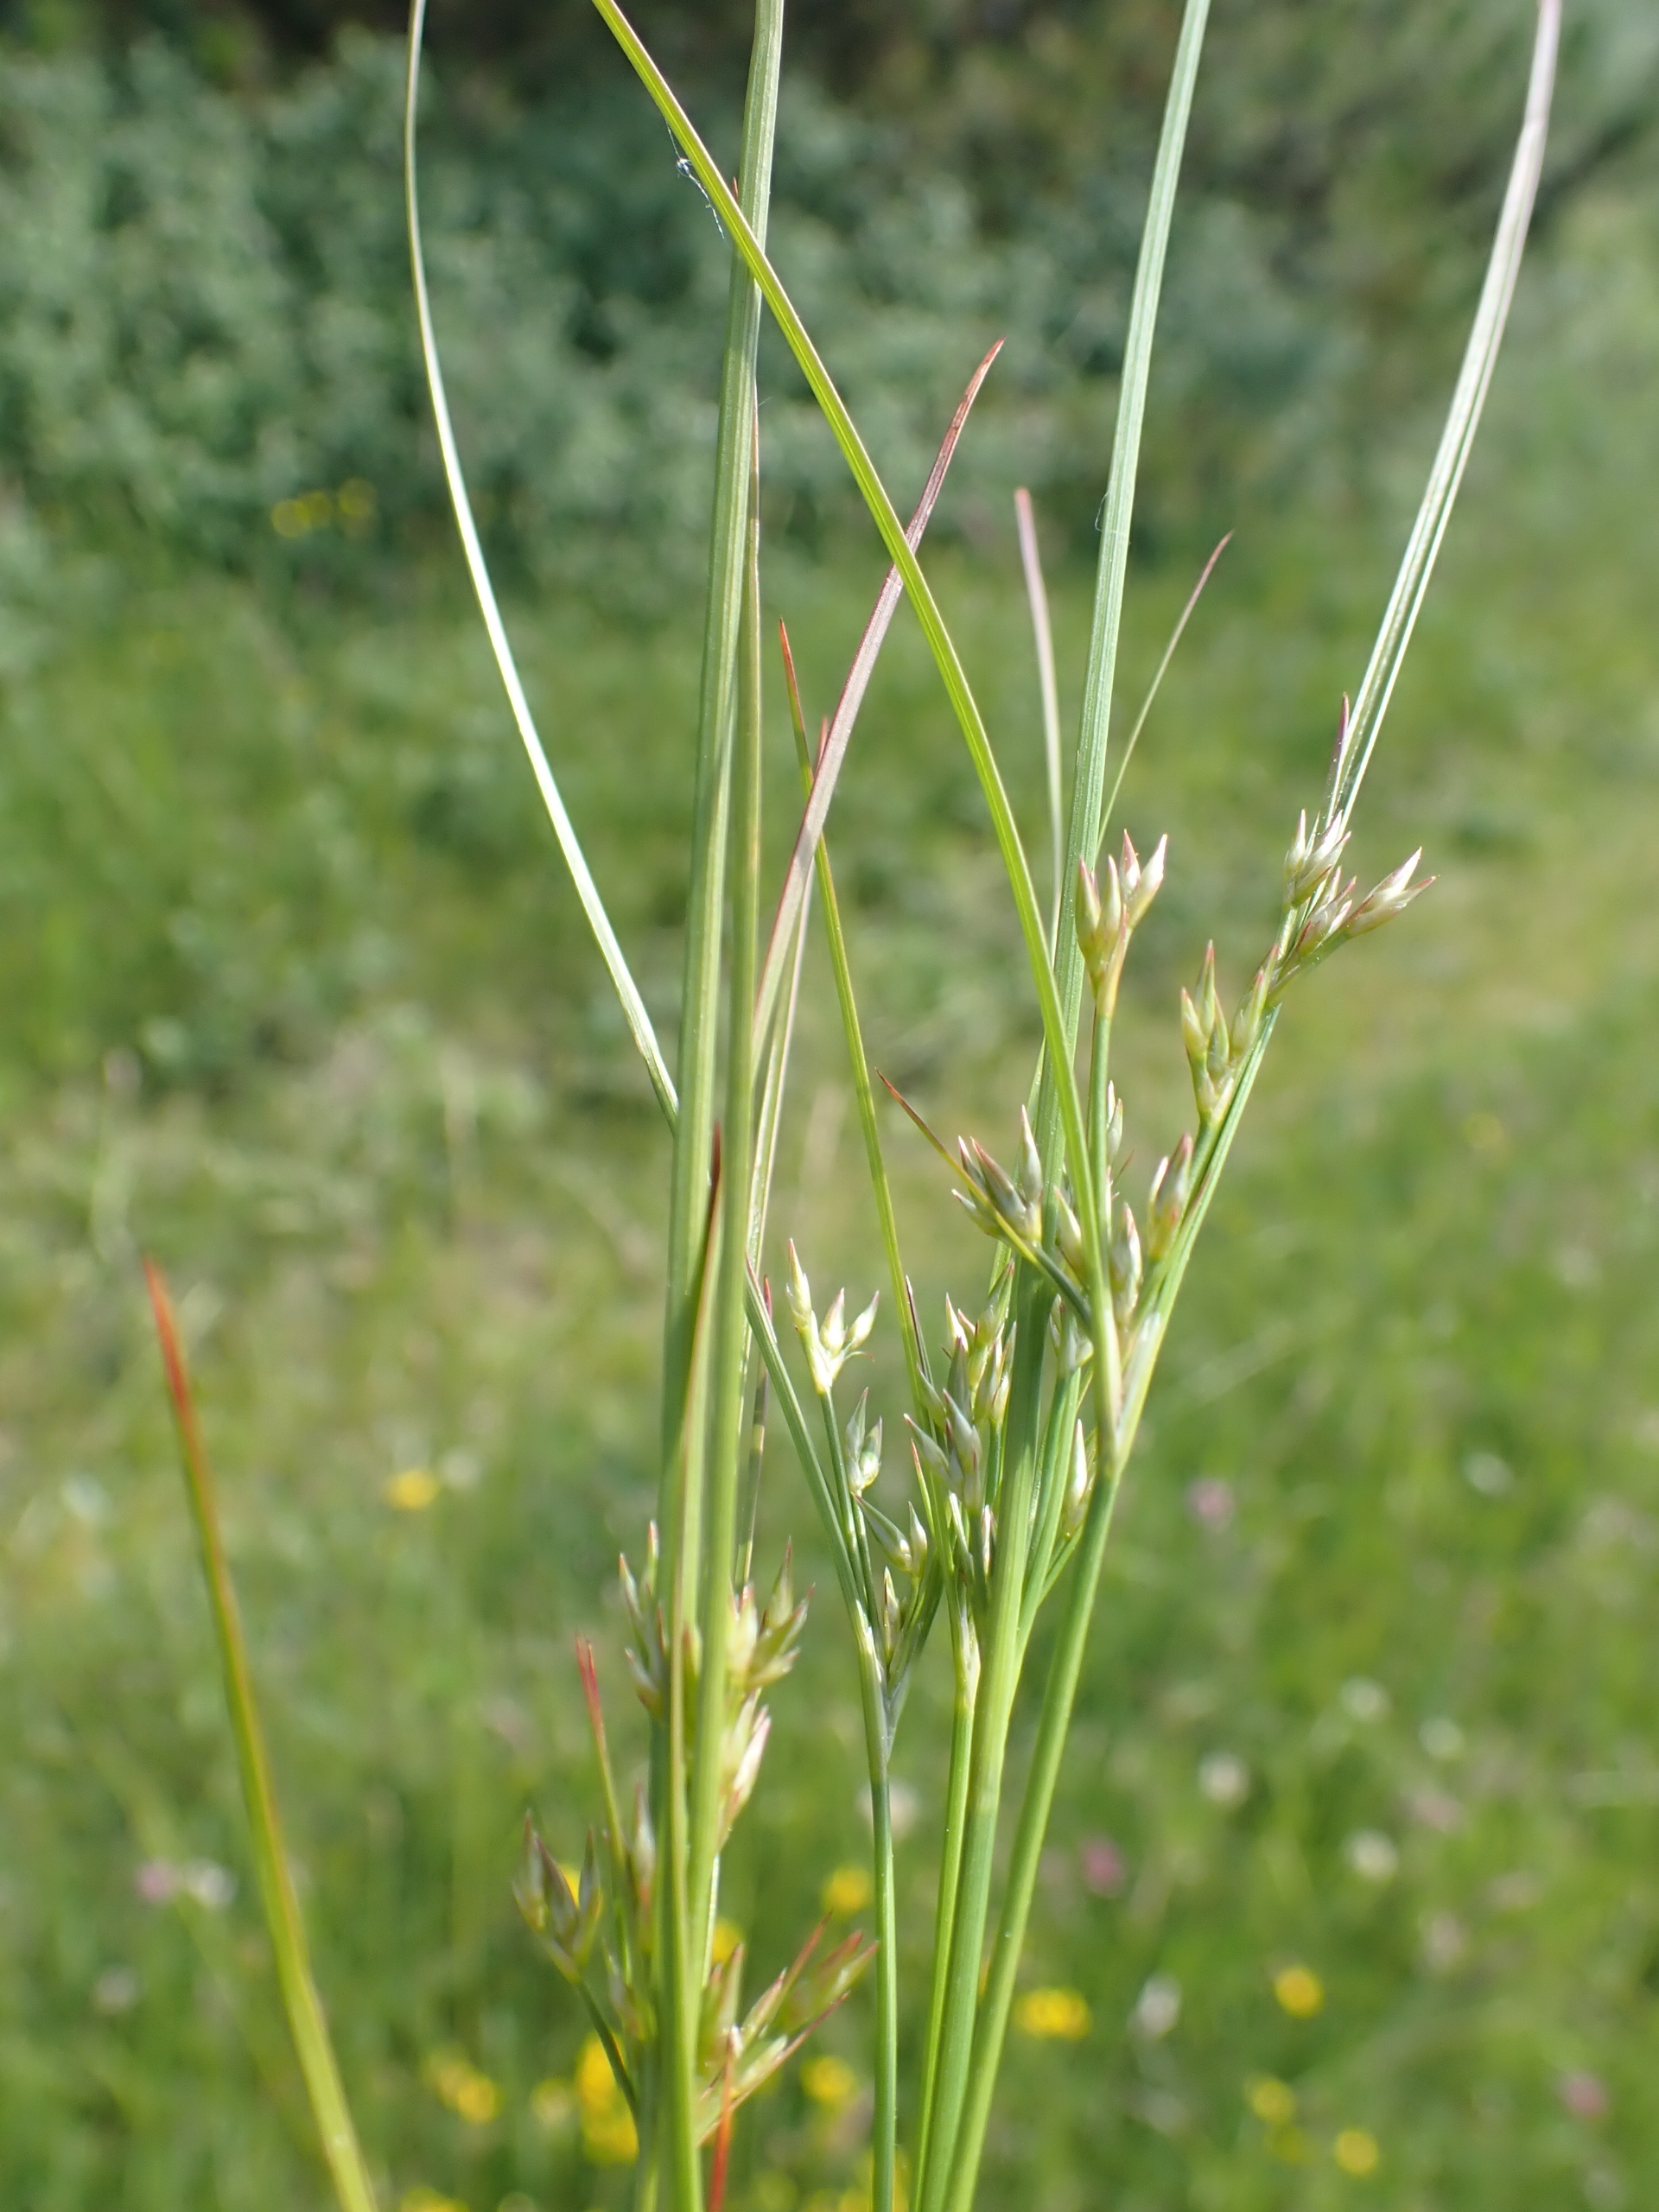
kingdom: Plantae
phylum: Tracheophyta
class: Liliopsida
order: Poales
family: Juncaceae
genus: Juncus
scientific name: Juncus tenuis
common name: Tue-siv
